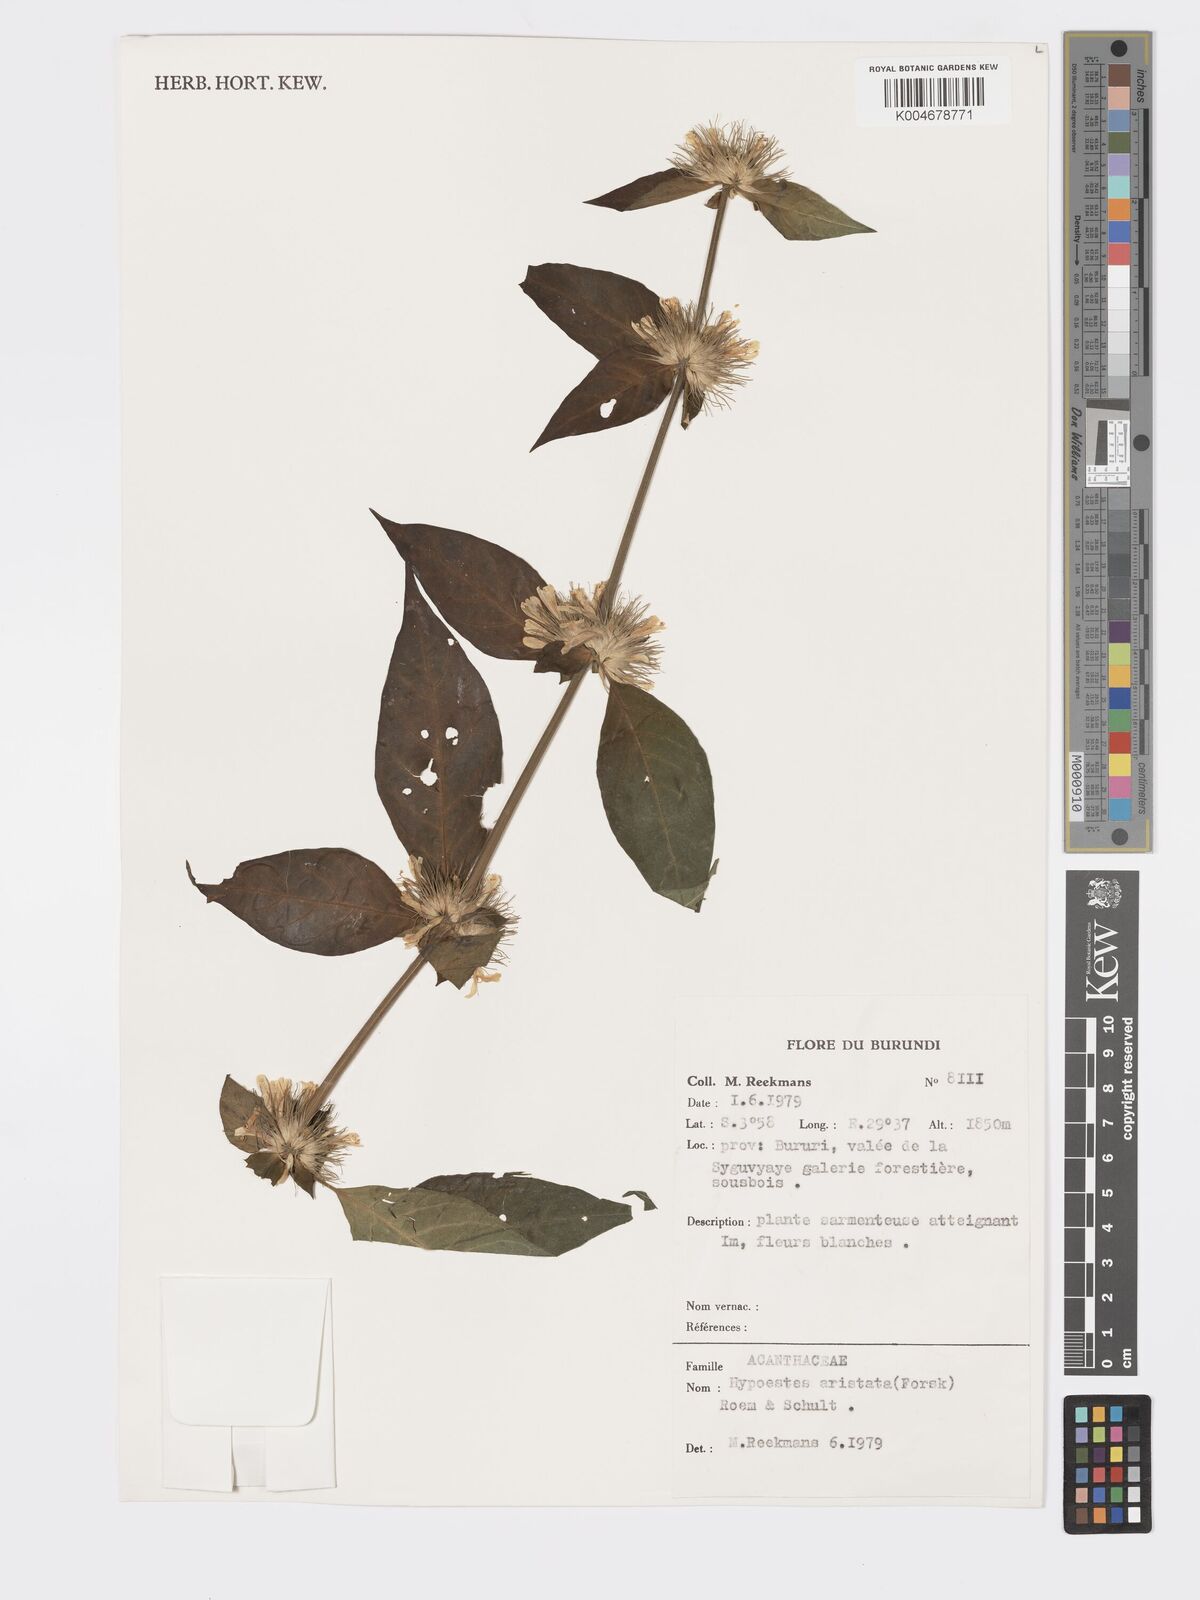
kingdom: Plantae
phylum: Tracheophyta
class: Magnoliopsida
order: Lamiales
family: Acanthaceae
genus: Hypoestes
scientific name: Hypoestes aristata
